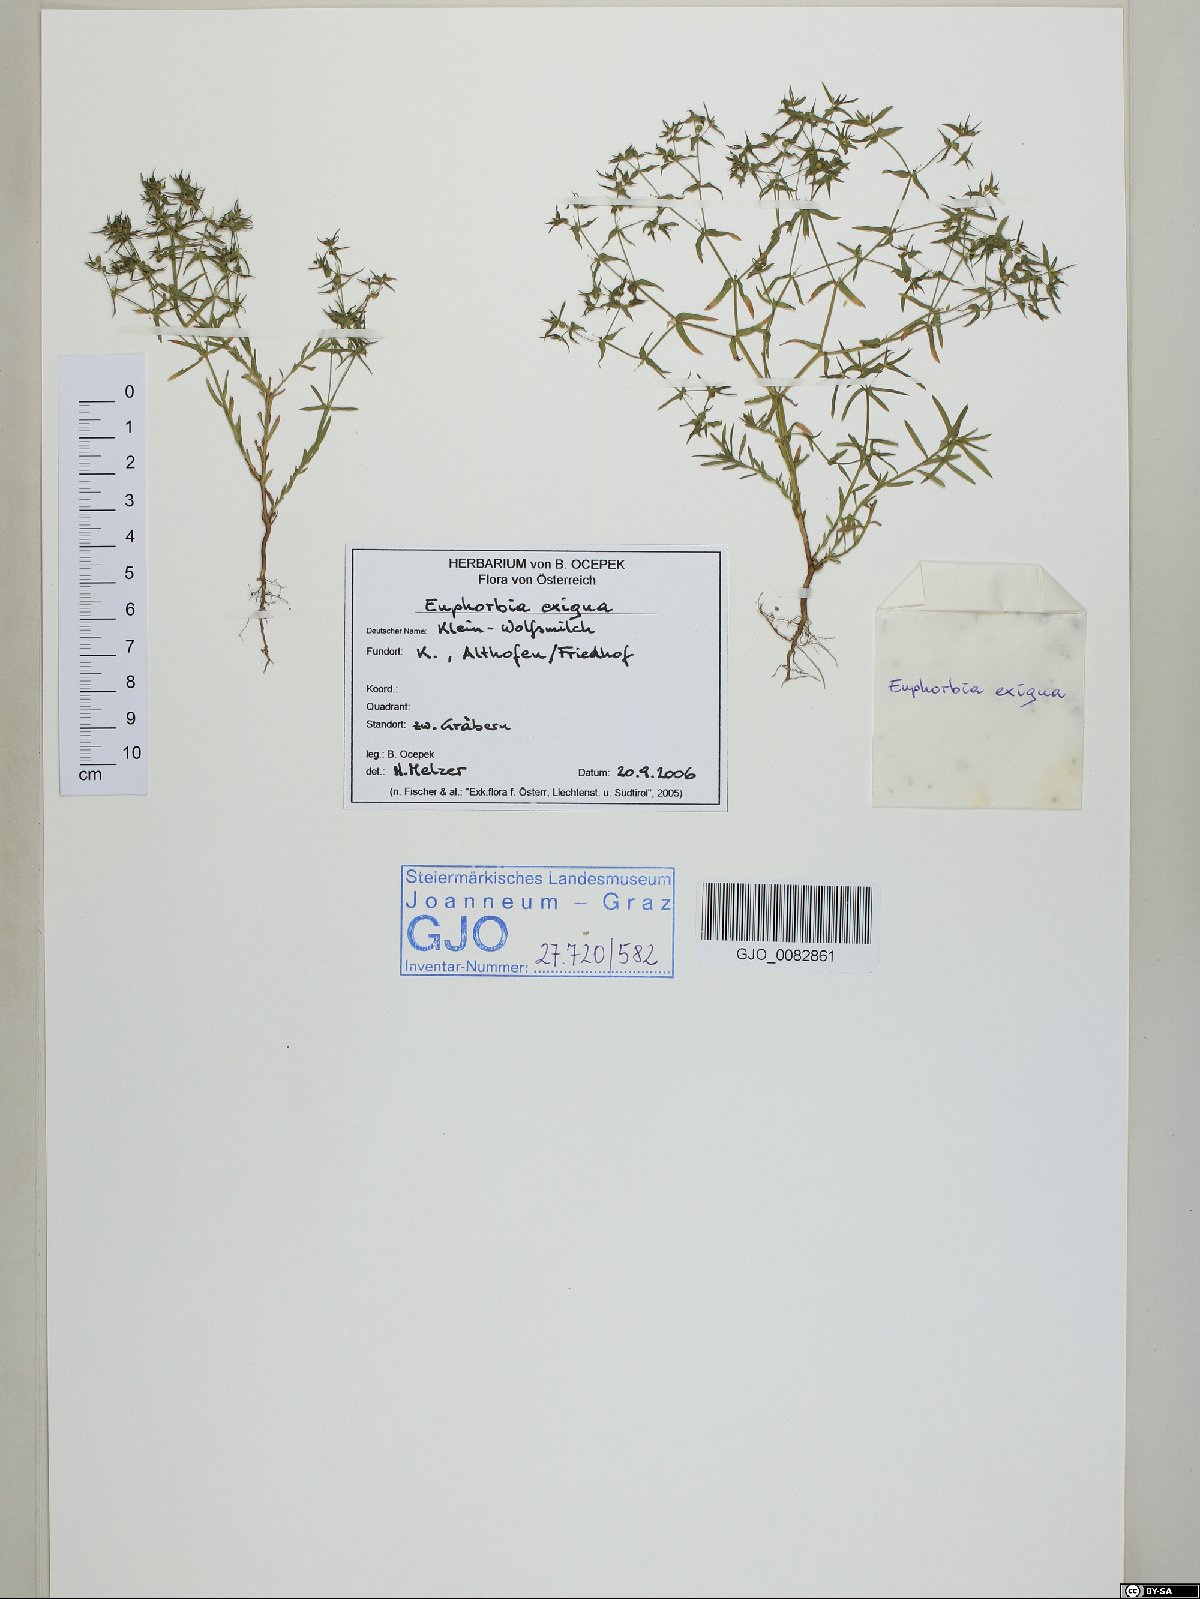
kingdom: Plantae
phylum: Tracheophyta
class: Magnoliopsida
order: Malpighiales
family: Euphorbiaceae
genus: Euphorbia
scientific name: Euphorbia exigua
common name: Dwarf spurge
